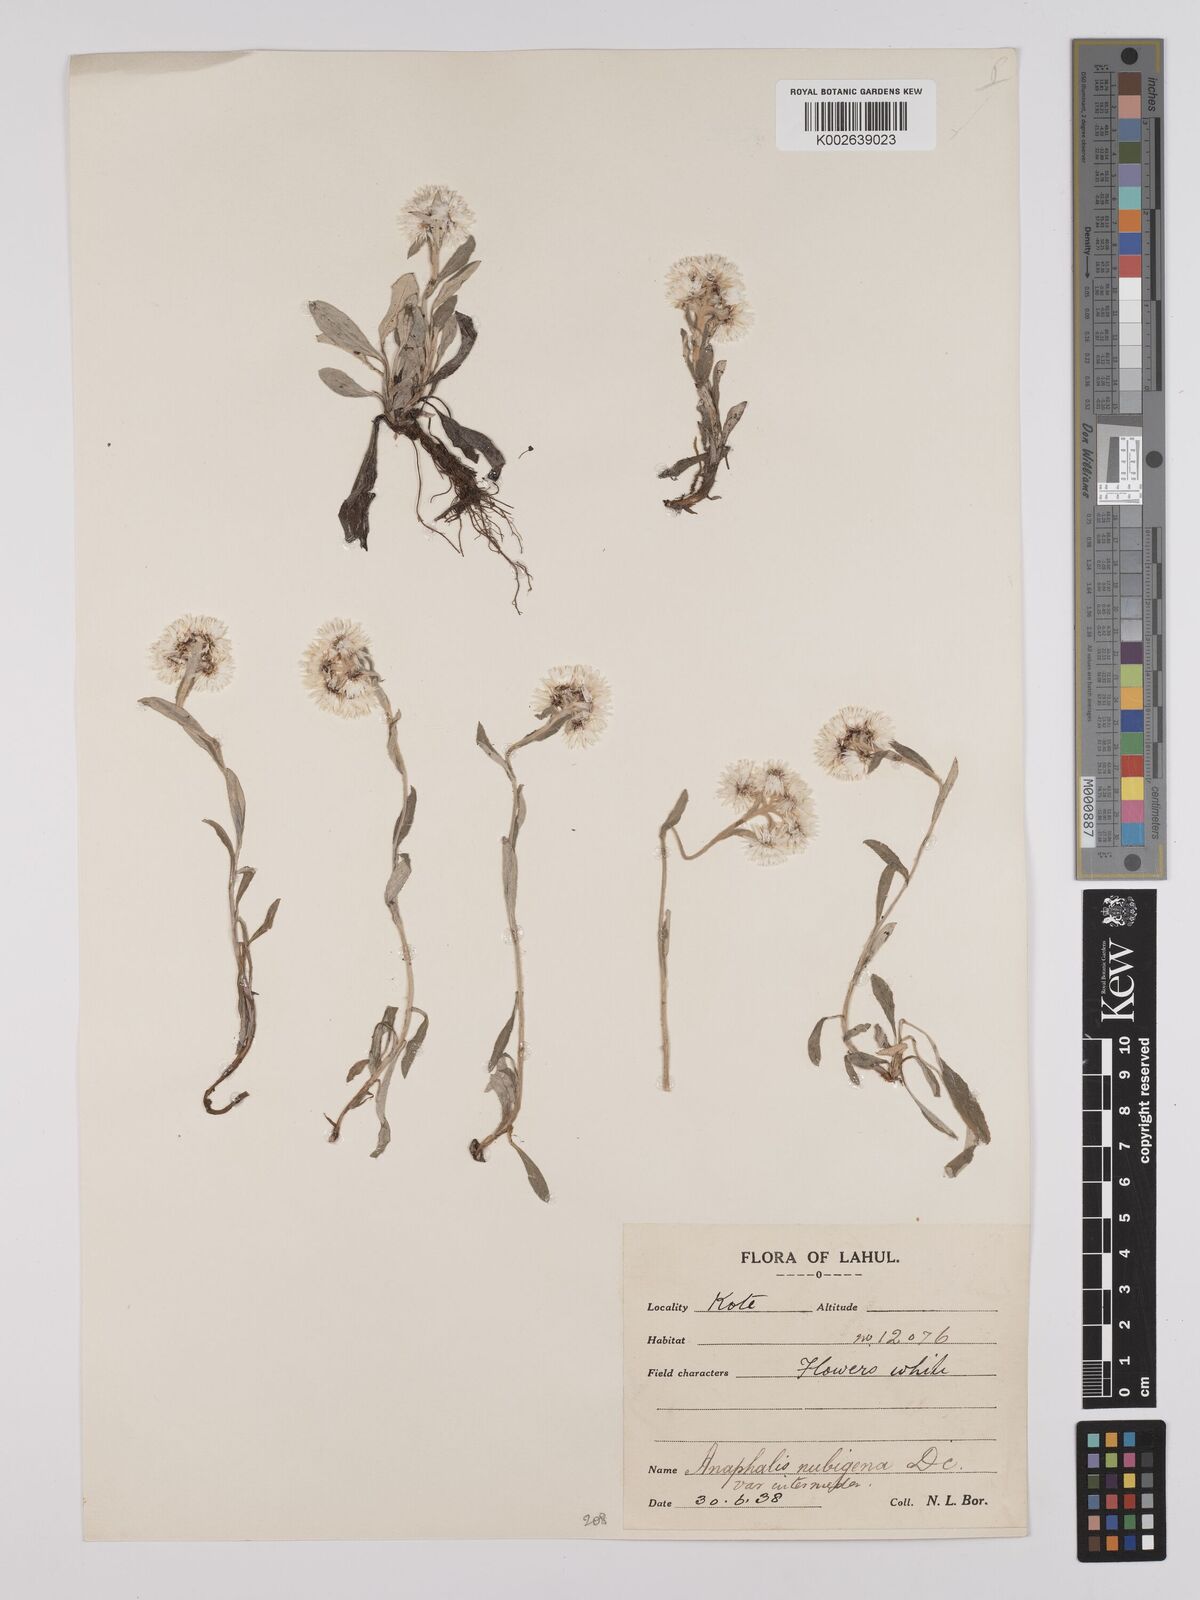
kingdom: Plantae
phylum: Tracheophyta
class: Magnoliopsida
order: Asterales
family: Asteraceae
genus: Anaphalis
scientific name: Anaphalis nepalensis
